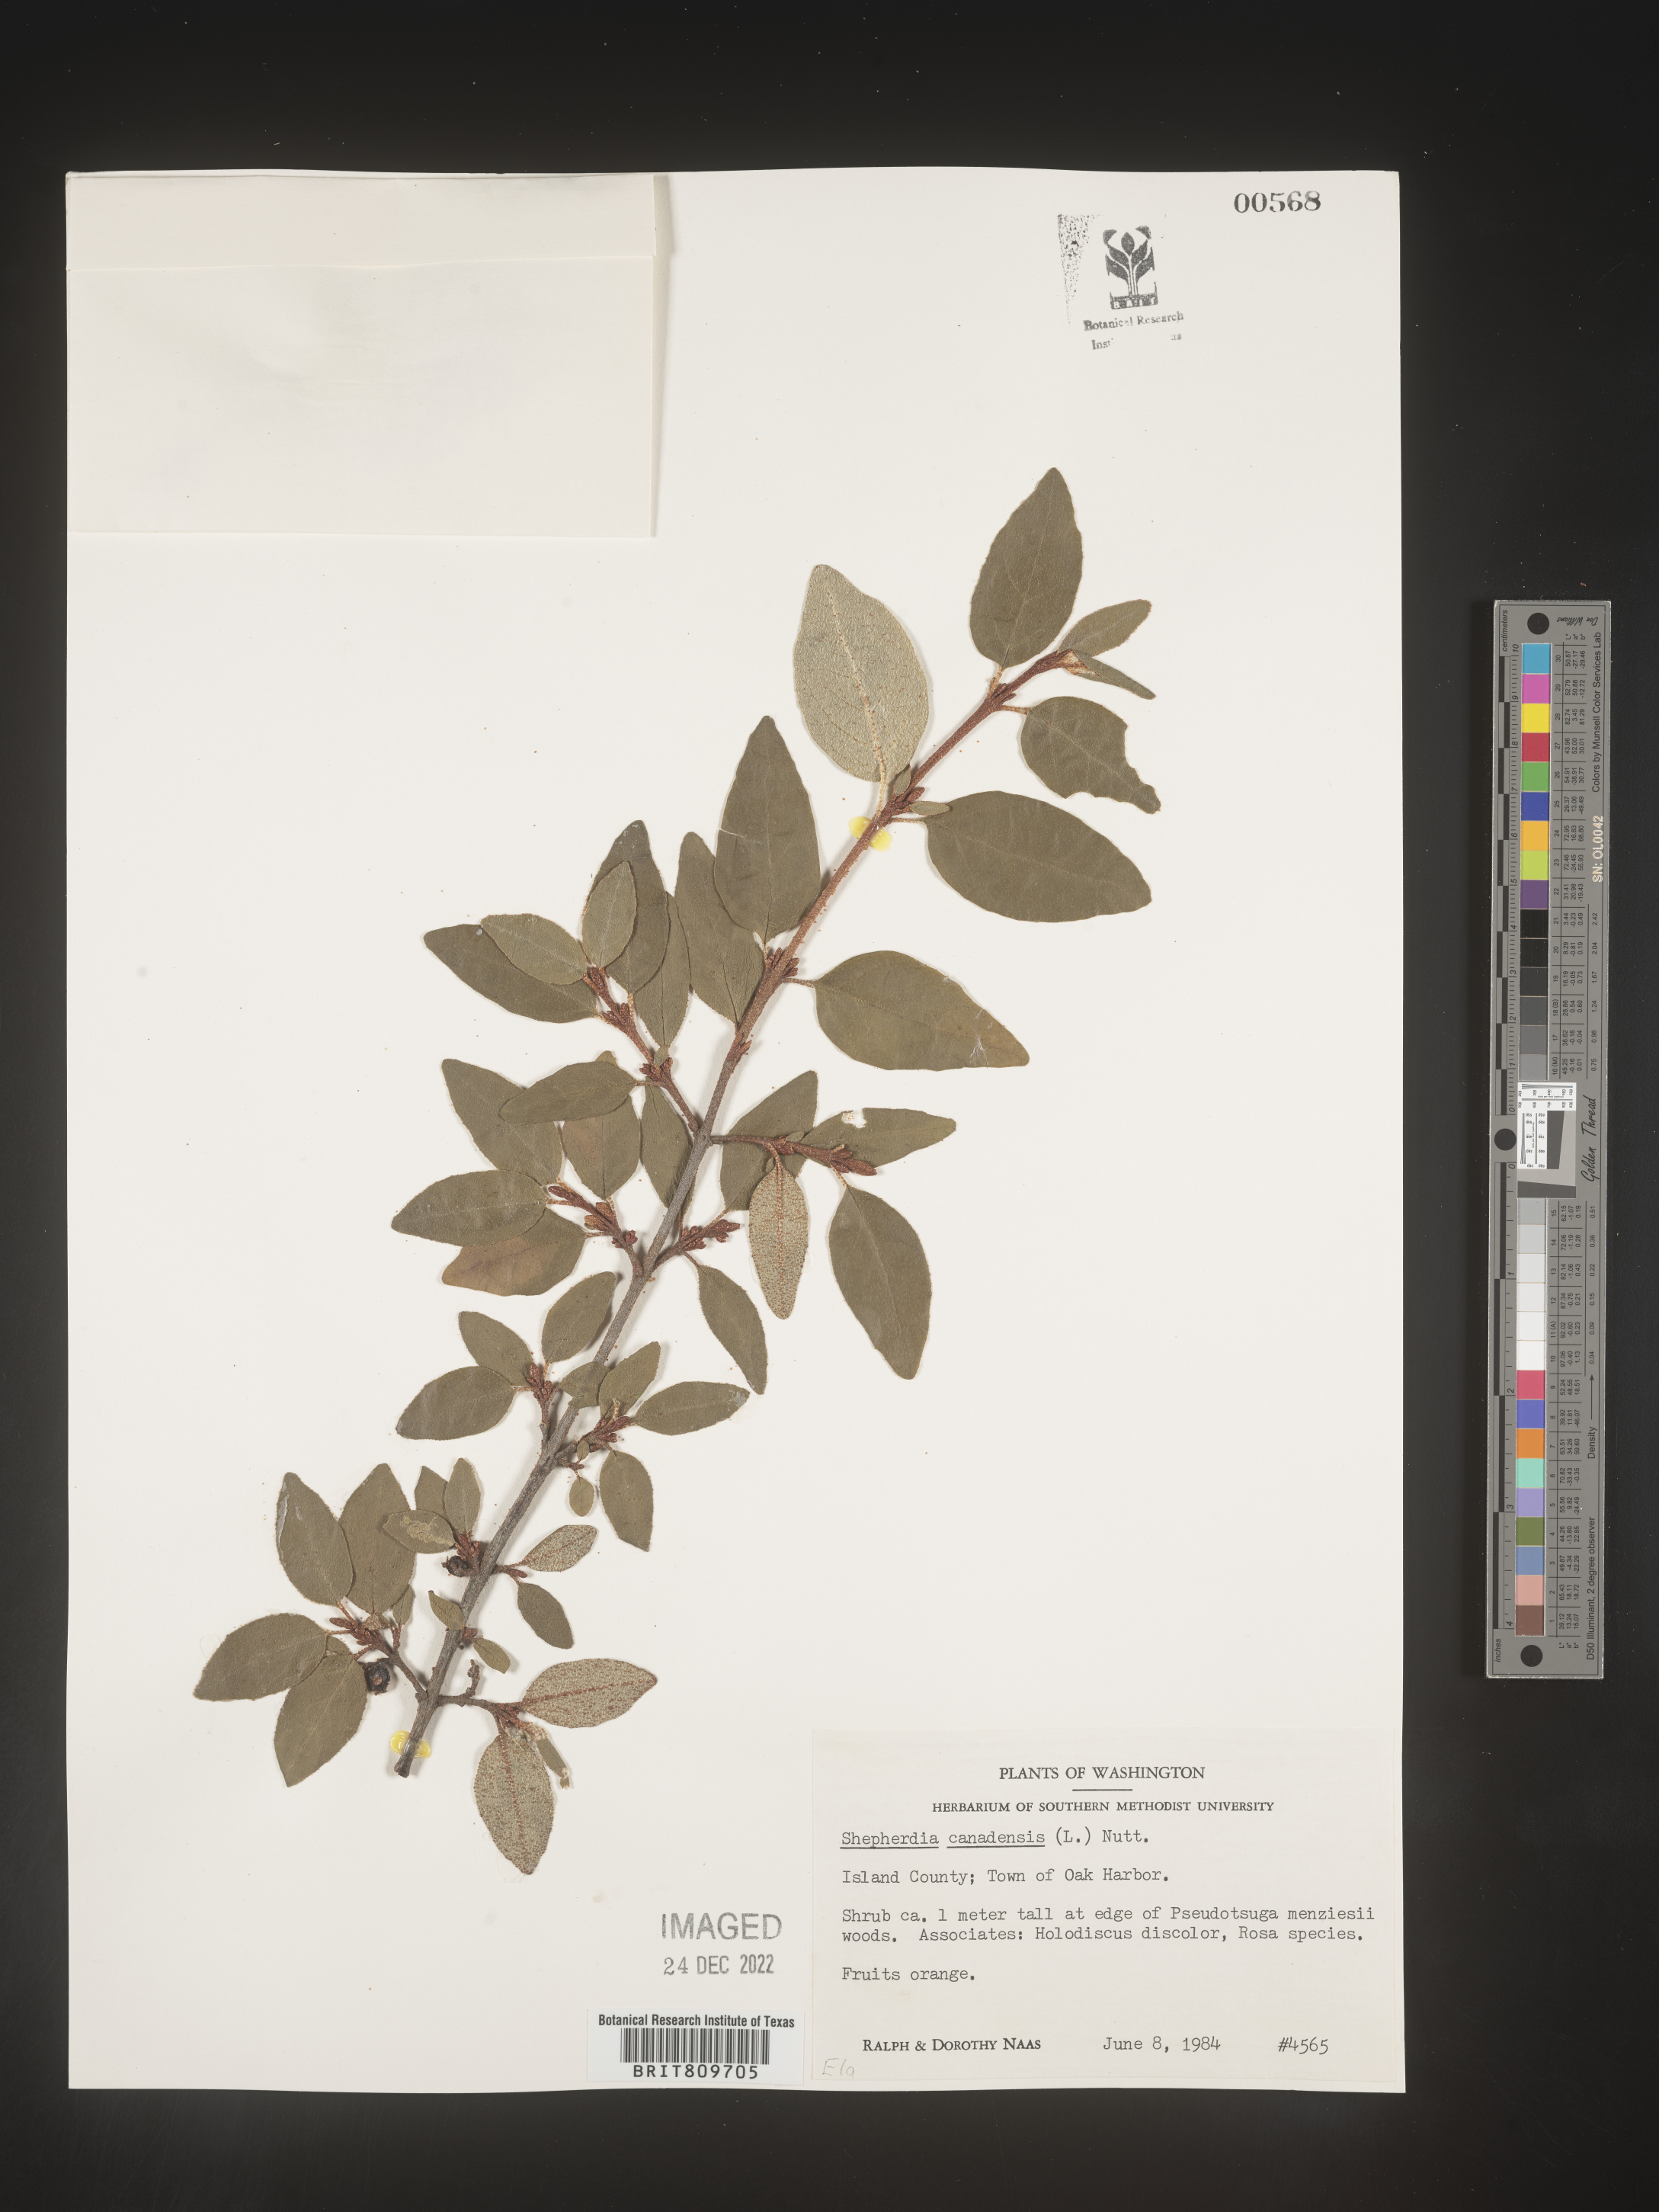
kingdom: Plantae
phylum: Tracheophyta
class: Magnoliopsida
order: Rosales
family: Elaeagnaceae
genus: Shepherdia
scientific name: Shepherdia canadensis
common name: Soapberry
